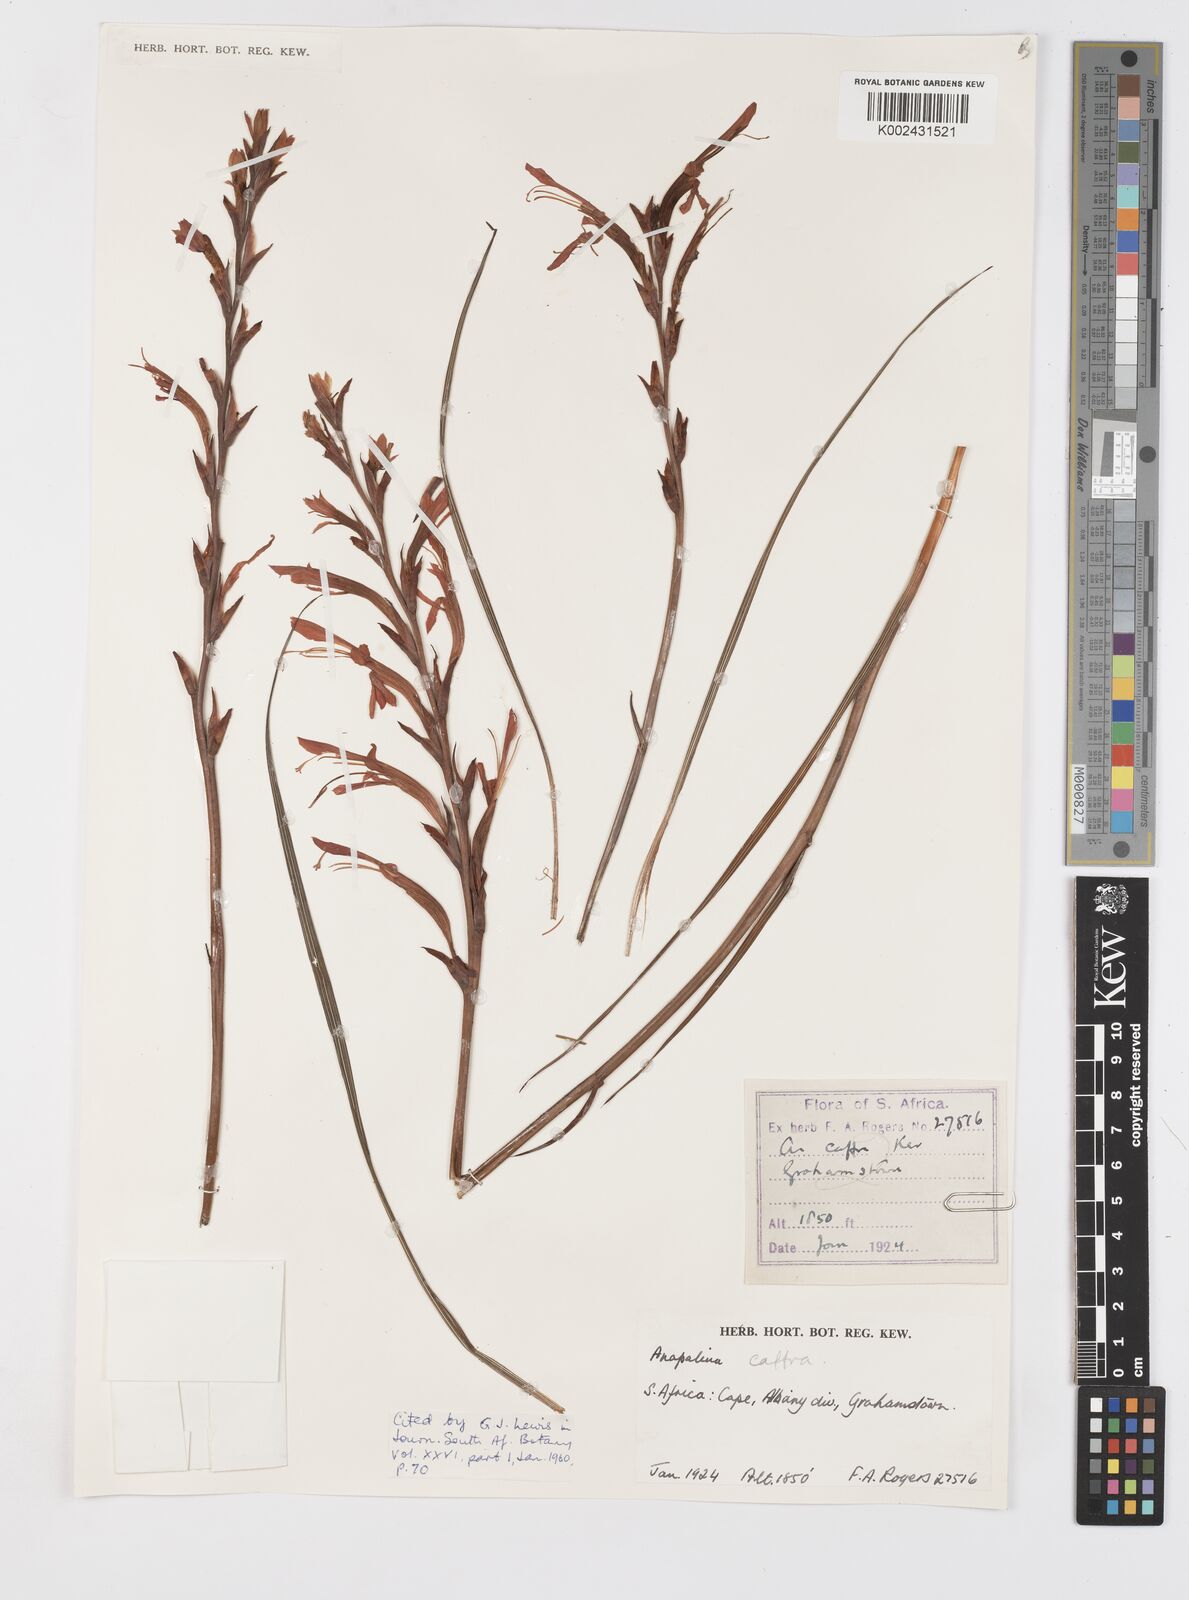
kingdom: Plantae
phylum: Tracheophyta
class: Liliopsida
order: Asparagales
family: Iridaceae
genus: Tritoniopsis
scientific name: Tritoniopsis caffra
